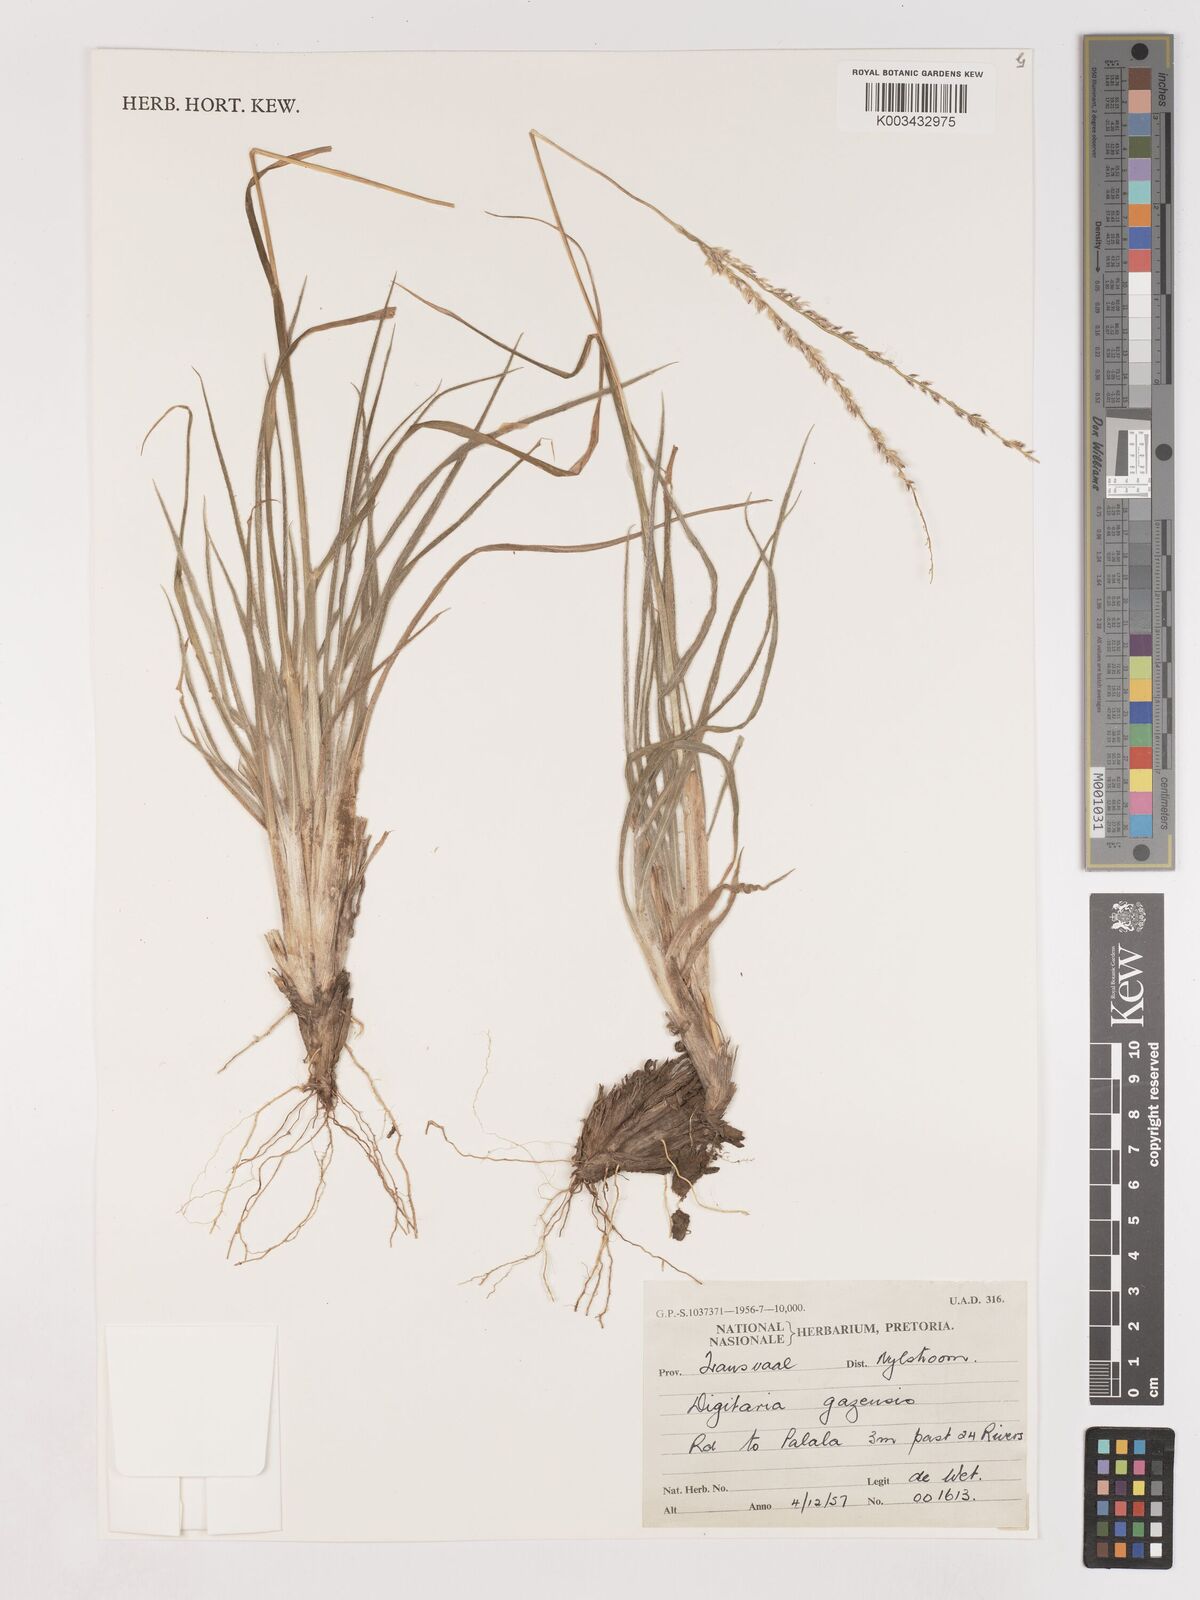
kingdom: Plantae
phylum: Tracheophyta
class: Liliopsida
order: Poales
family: Poaceae
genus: Digitaria
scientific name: Digitaria gazensis
